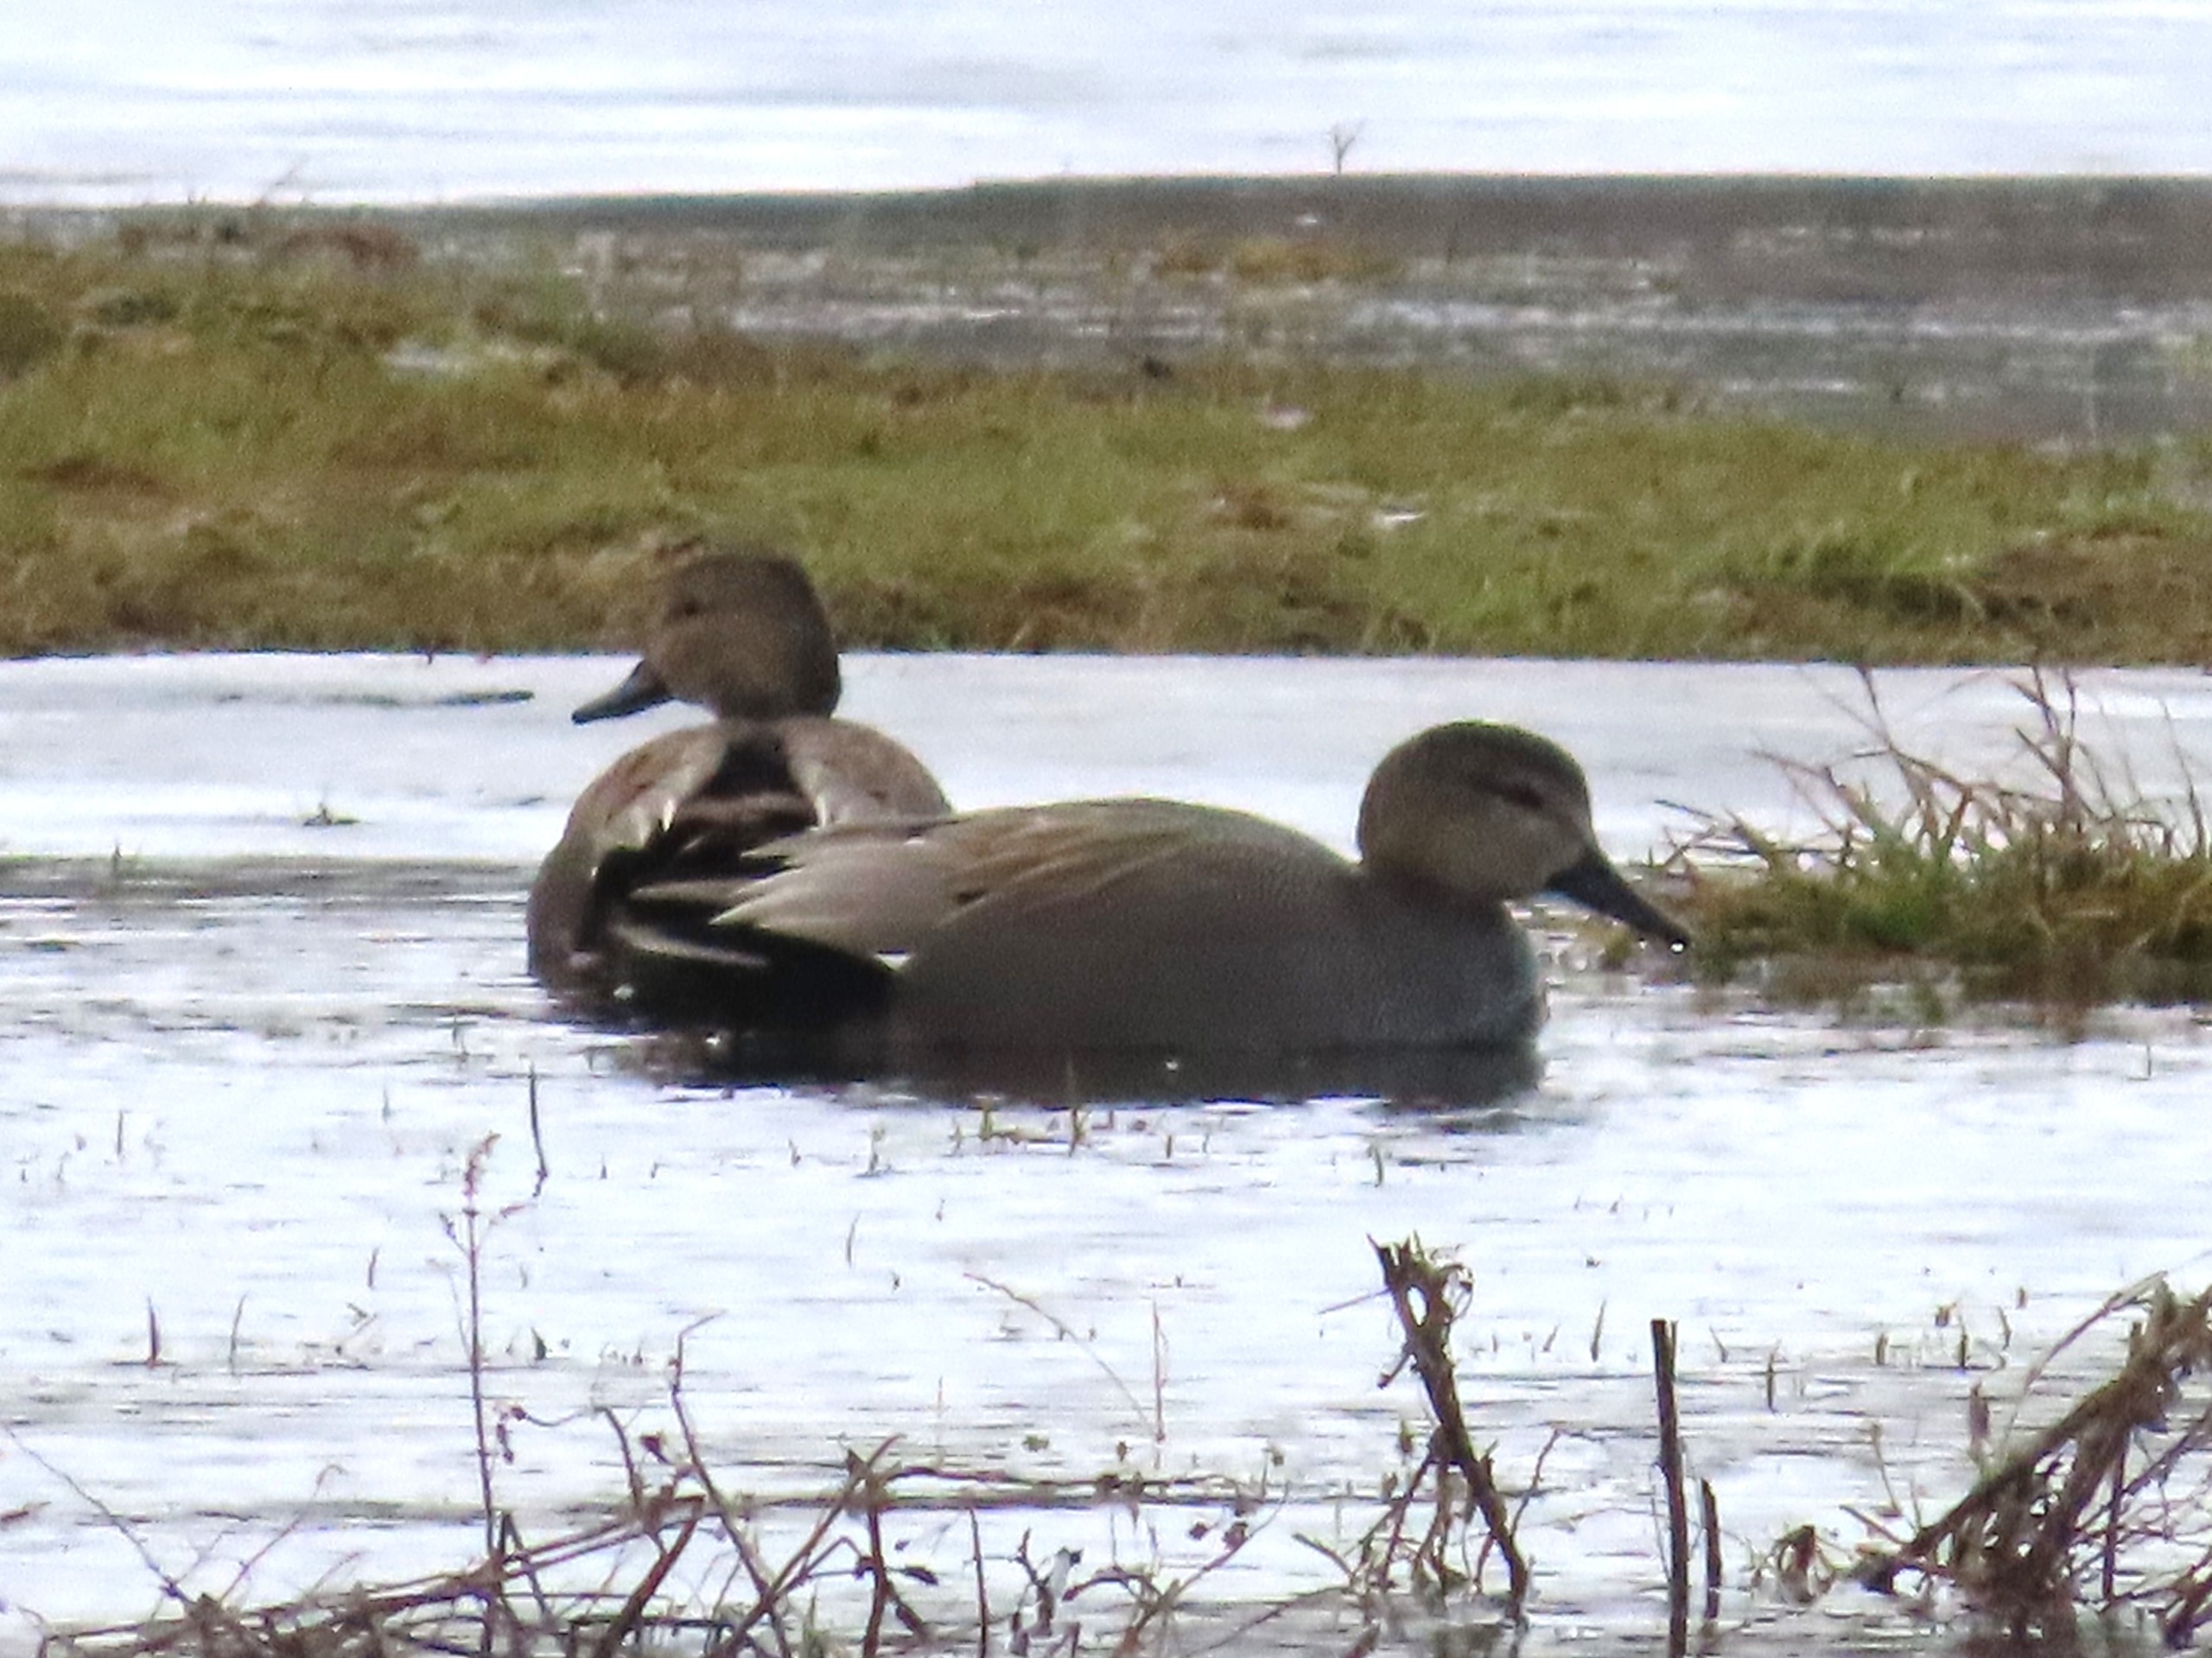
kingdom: Animalia
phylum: Chordata
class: Aves
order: Anseriformes
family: Anatidae
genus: Mareca
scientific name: Mareca strepera
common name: Knarand
